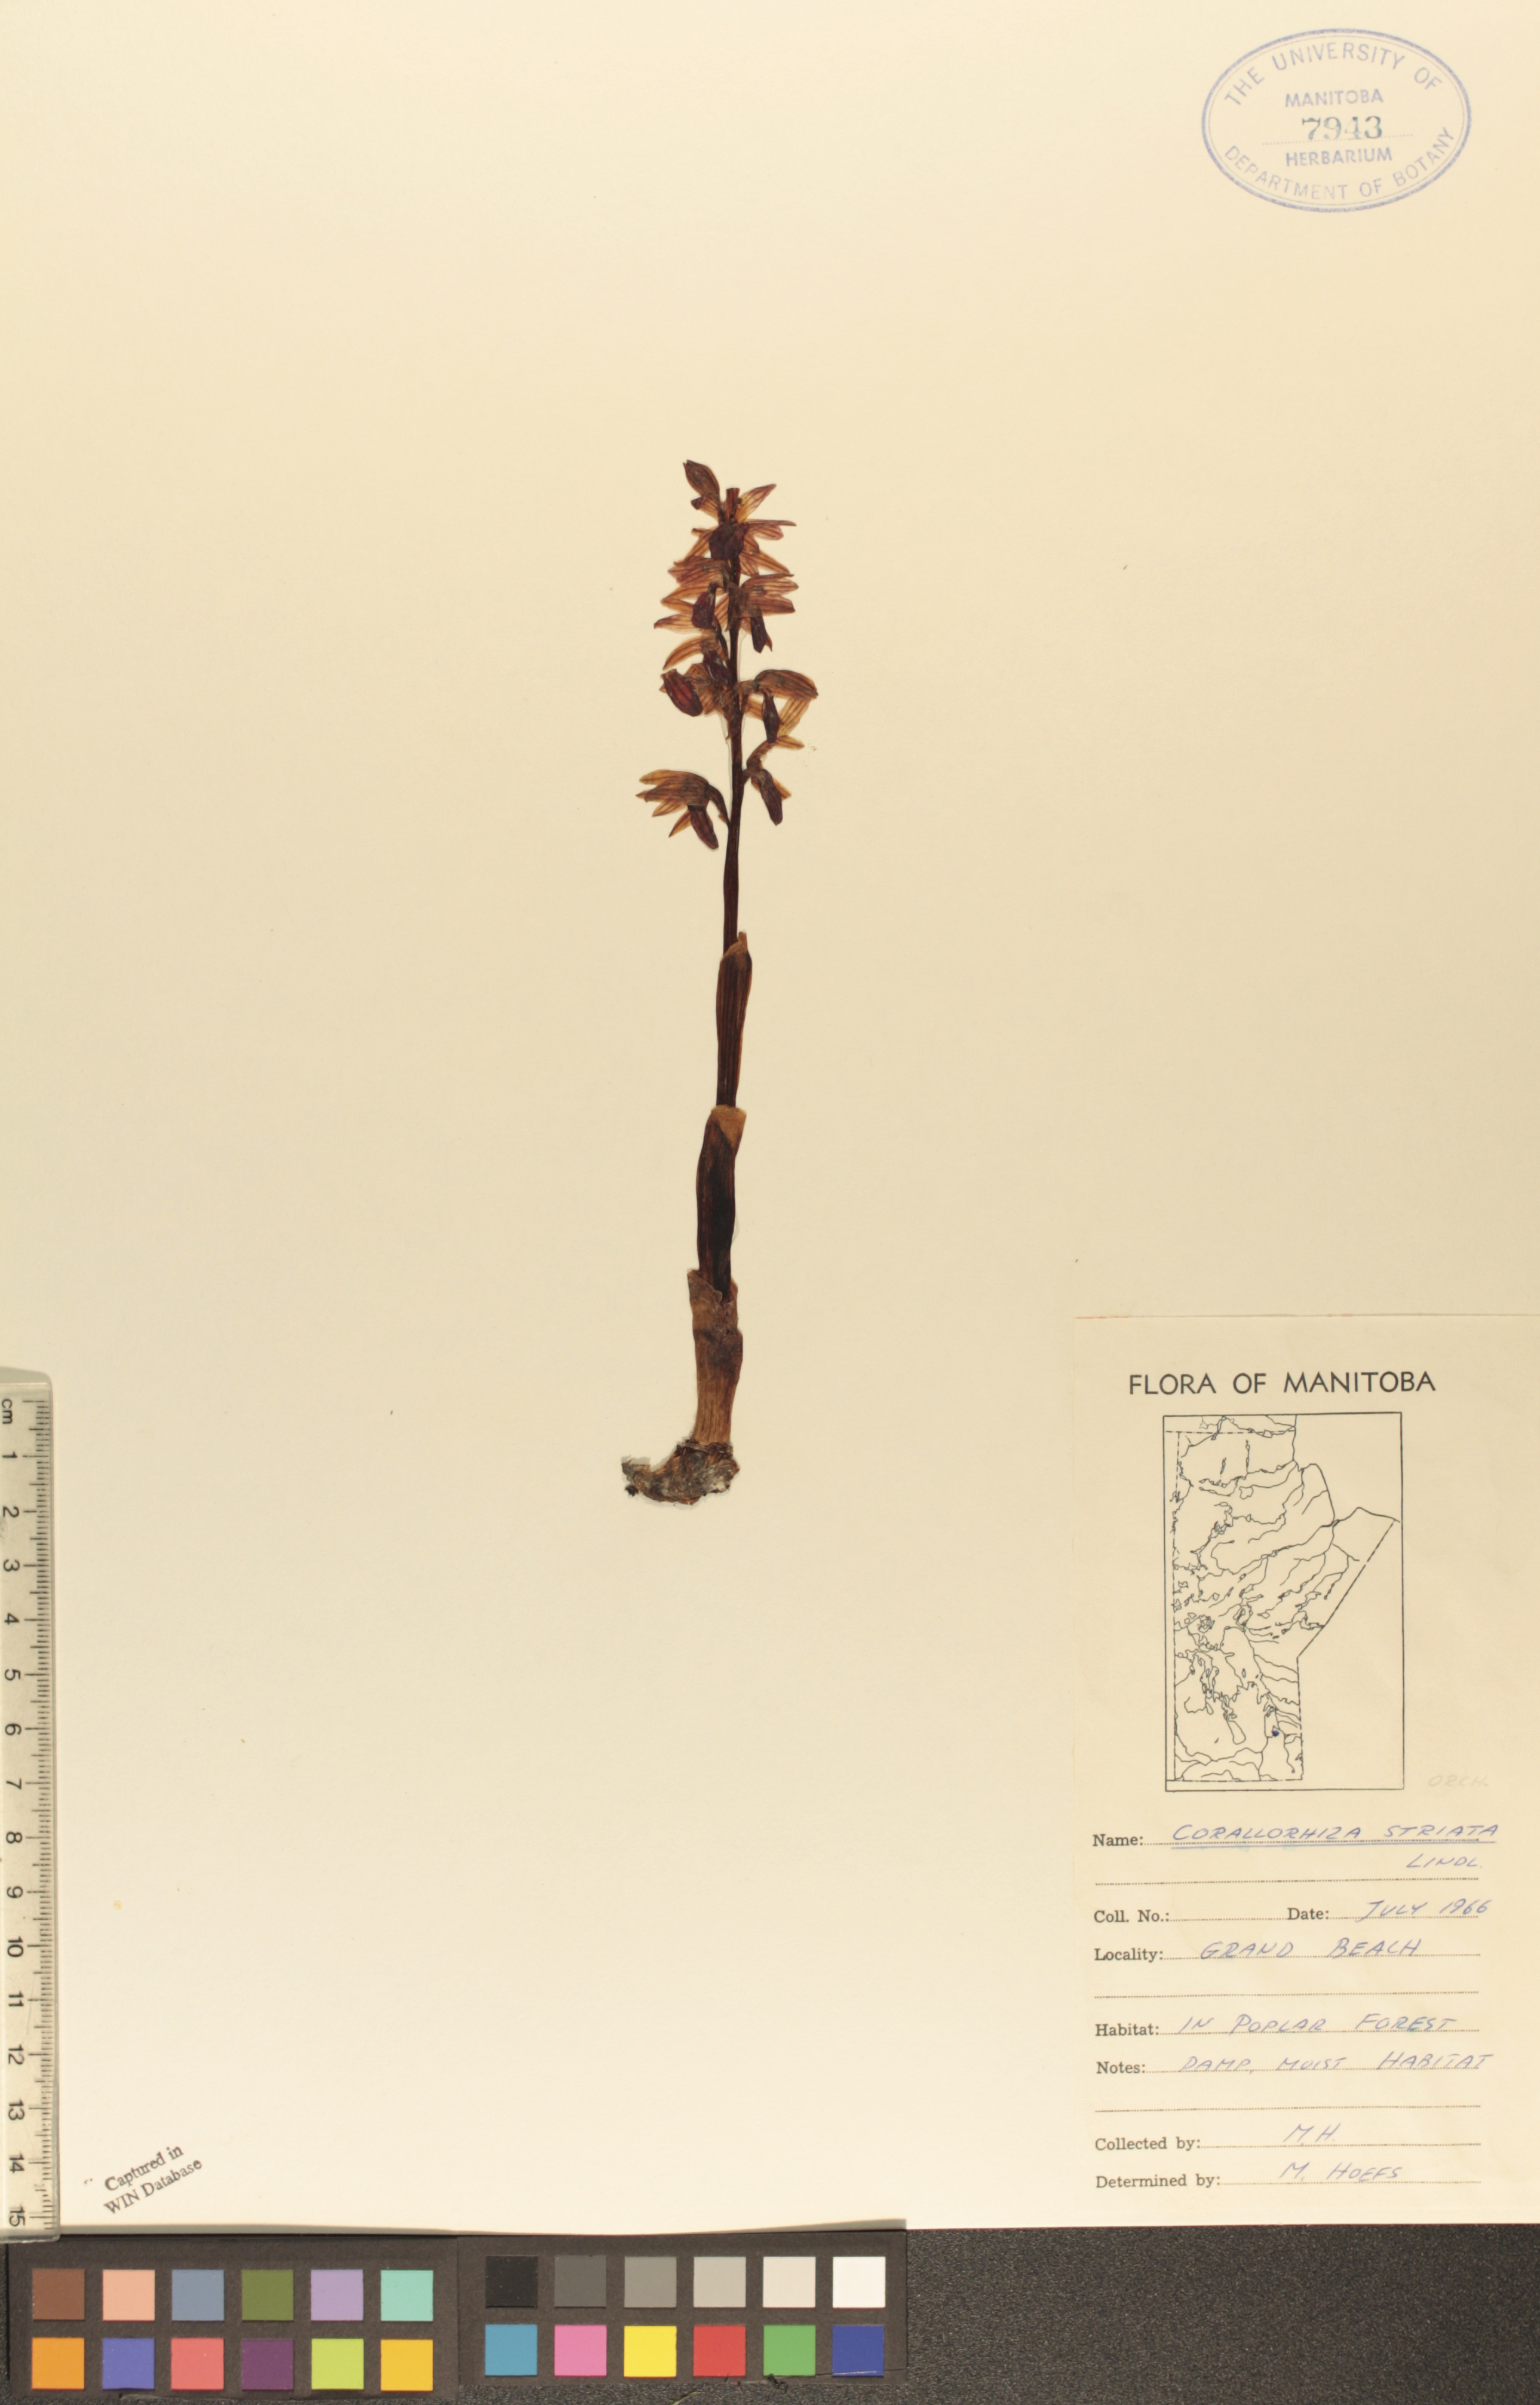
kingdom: Plantae
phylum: Tracheophyta
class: Liliopsida
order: Asparagales
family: Orchidaceae
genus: Corallorhiza
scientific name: Corallorhiza striata
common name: Hooded coralroot
